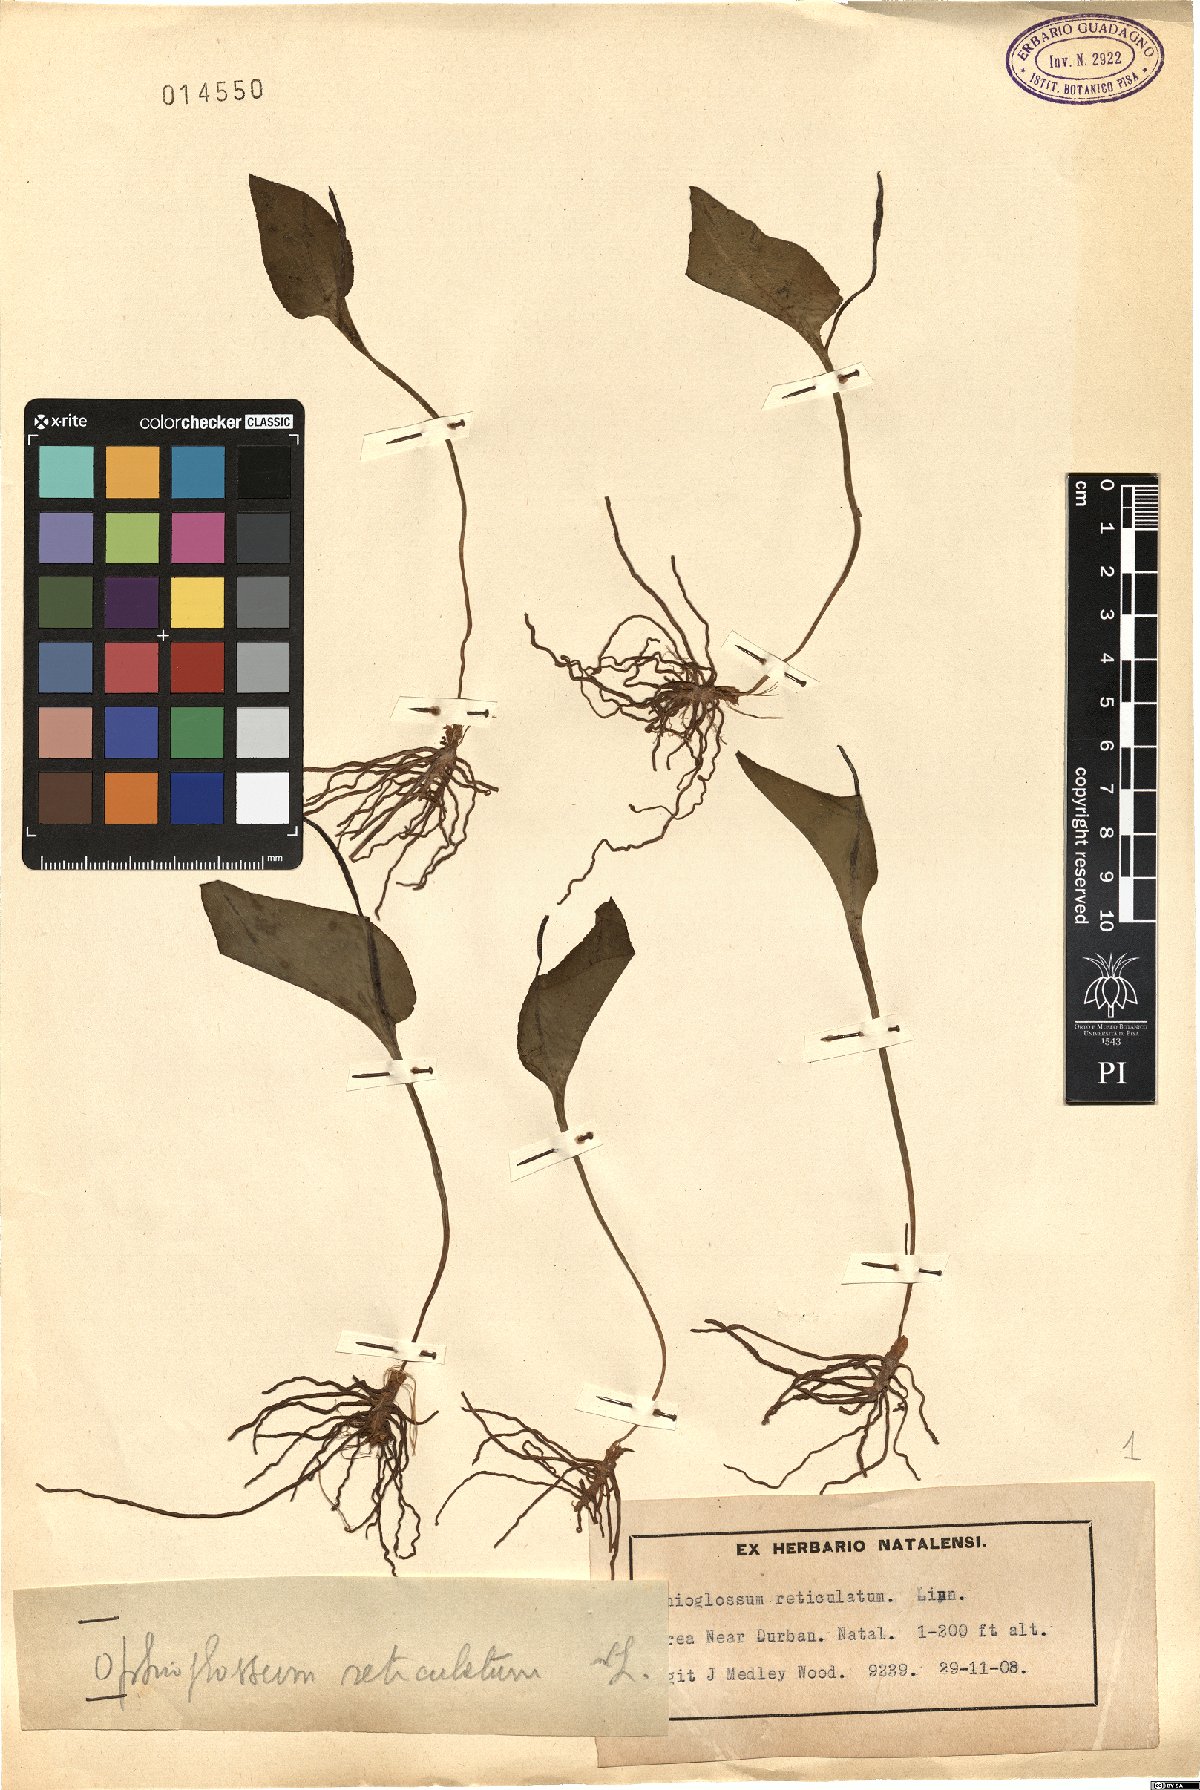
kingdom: Plantae
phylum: Tracheophyta
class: Polypodiopsida
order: Ophioglossales
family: Ophioglossaceae
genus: Ophioglossum
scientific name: Ophioglossum reticulatum
